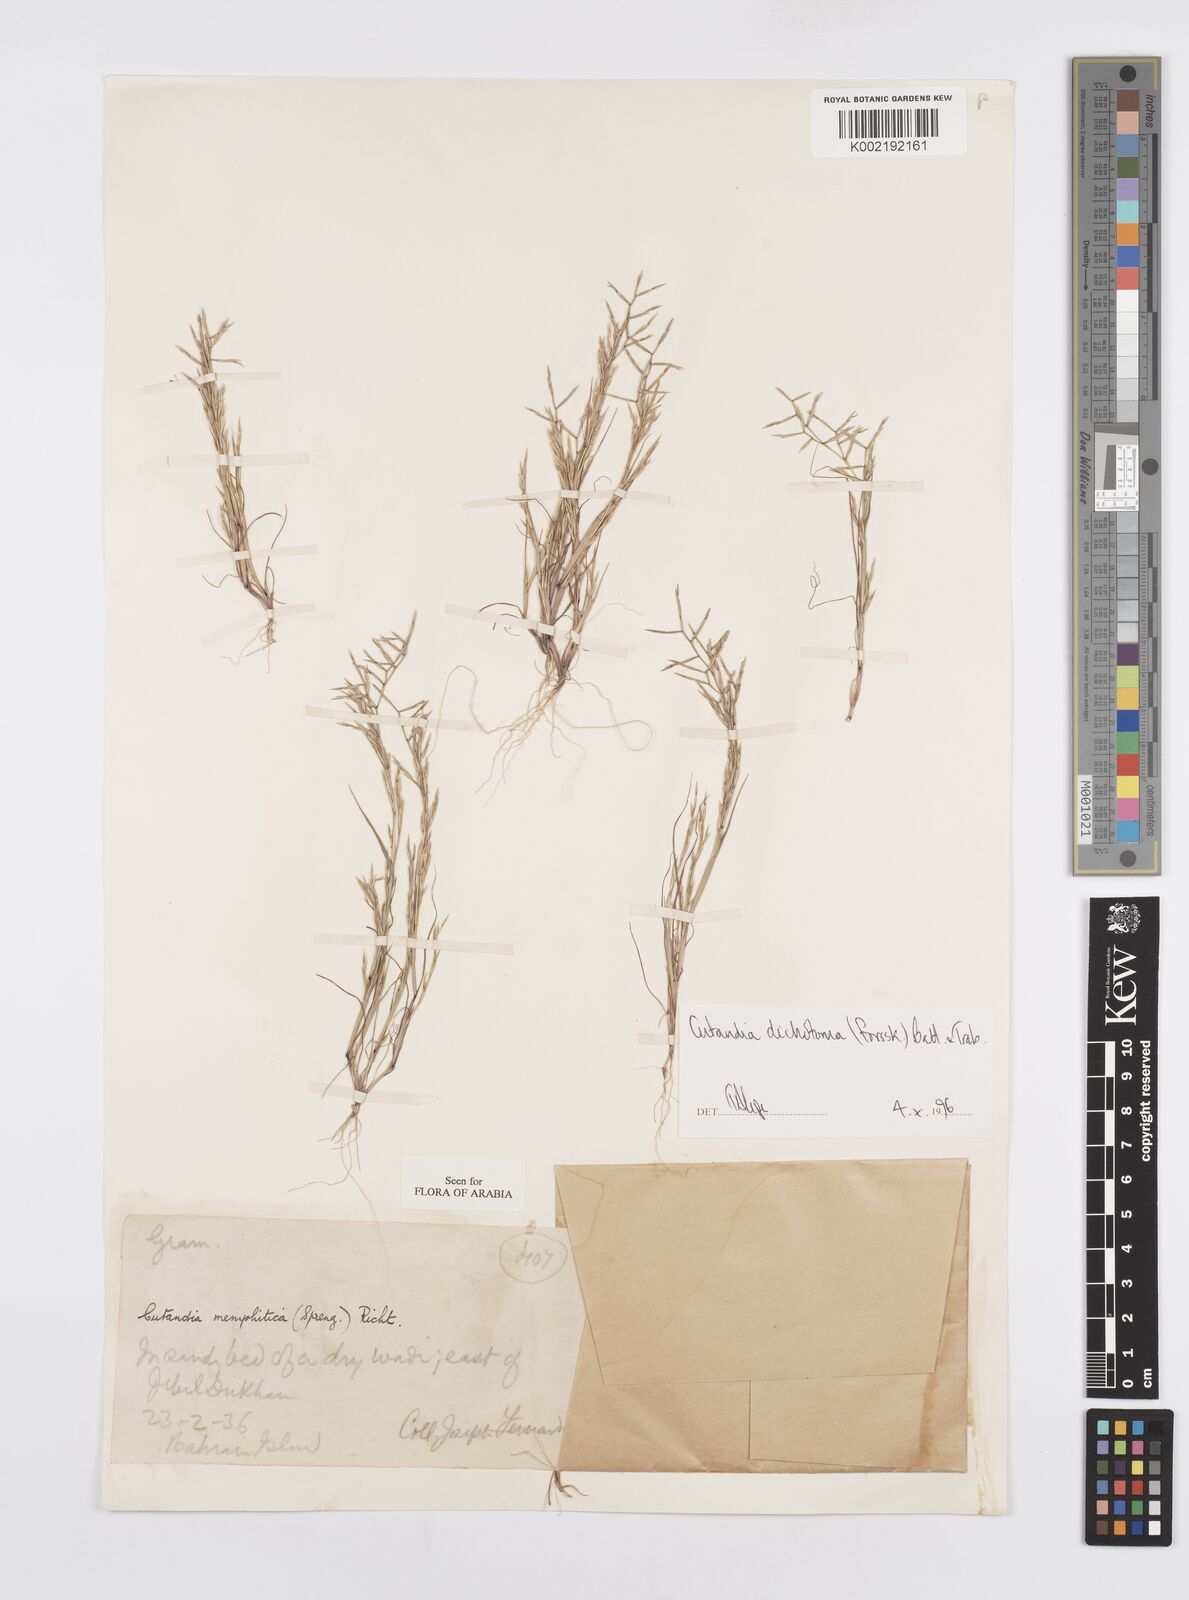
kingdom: Plantae
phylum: Tracheophyta
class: Liliopsida
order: Poales
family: Poaceae
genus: Cutandia
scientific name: Cutandia dichotoma
